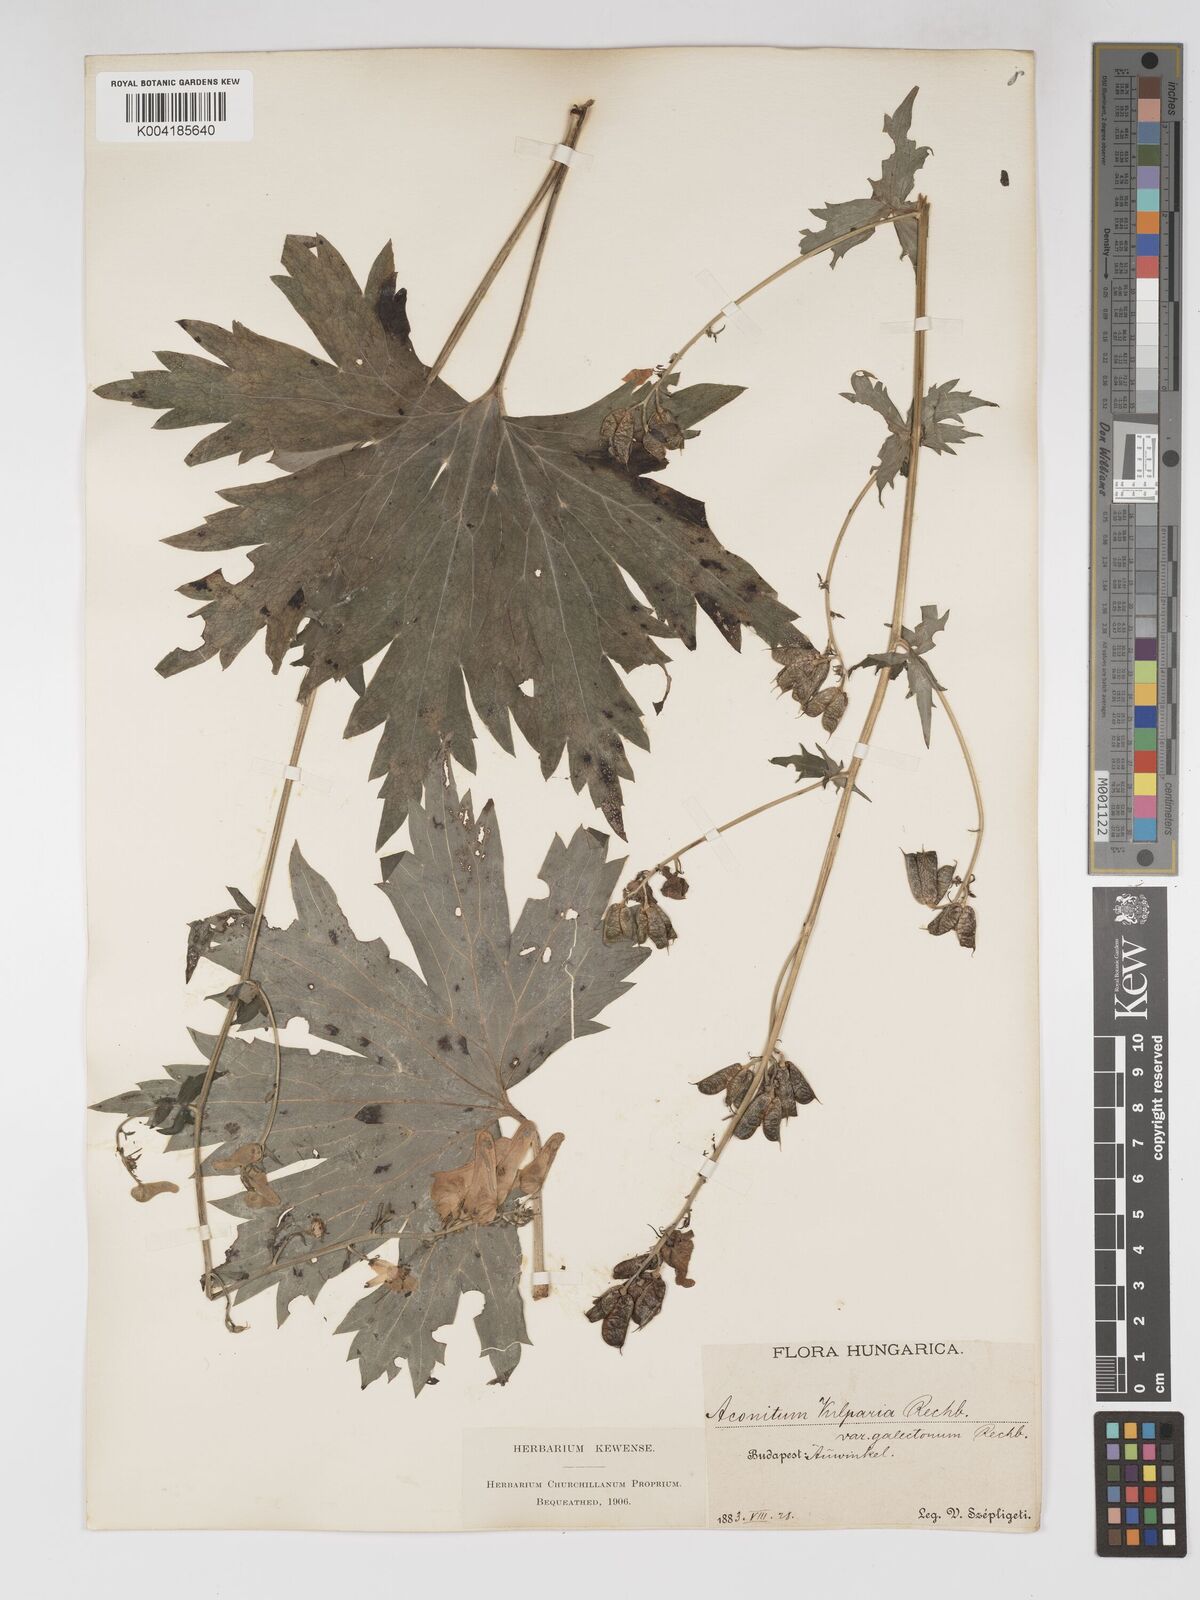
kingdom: Plantae
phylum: Tracheophyta
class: Magnoliopsida
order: Ranunculales
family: Ranunculaceae
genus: Aconitum
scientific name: Aconitum lycoctonum
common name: Wolf's-bane
